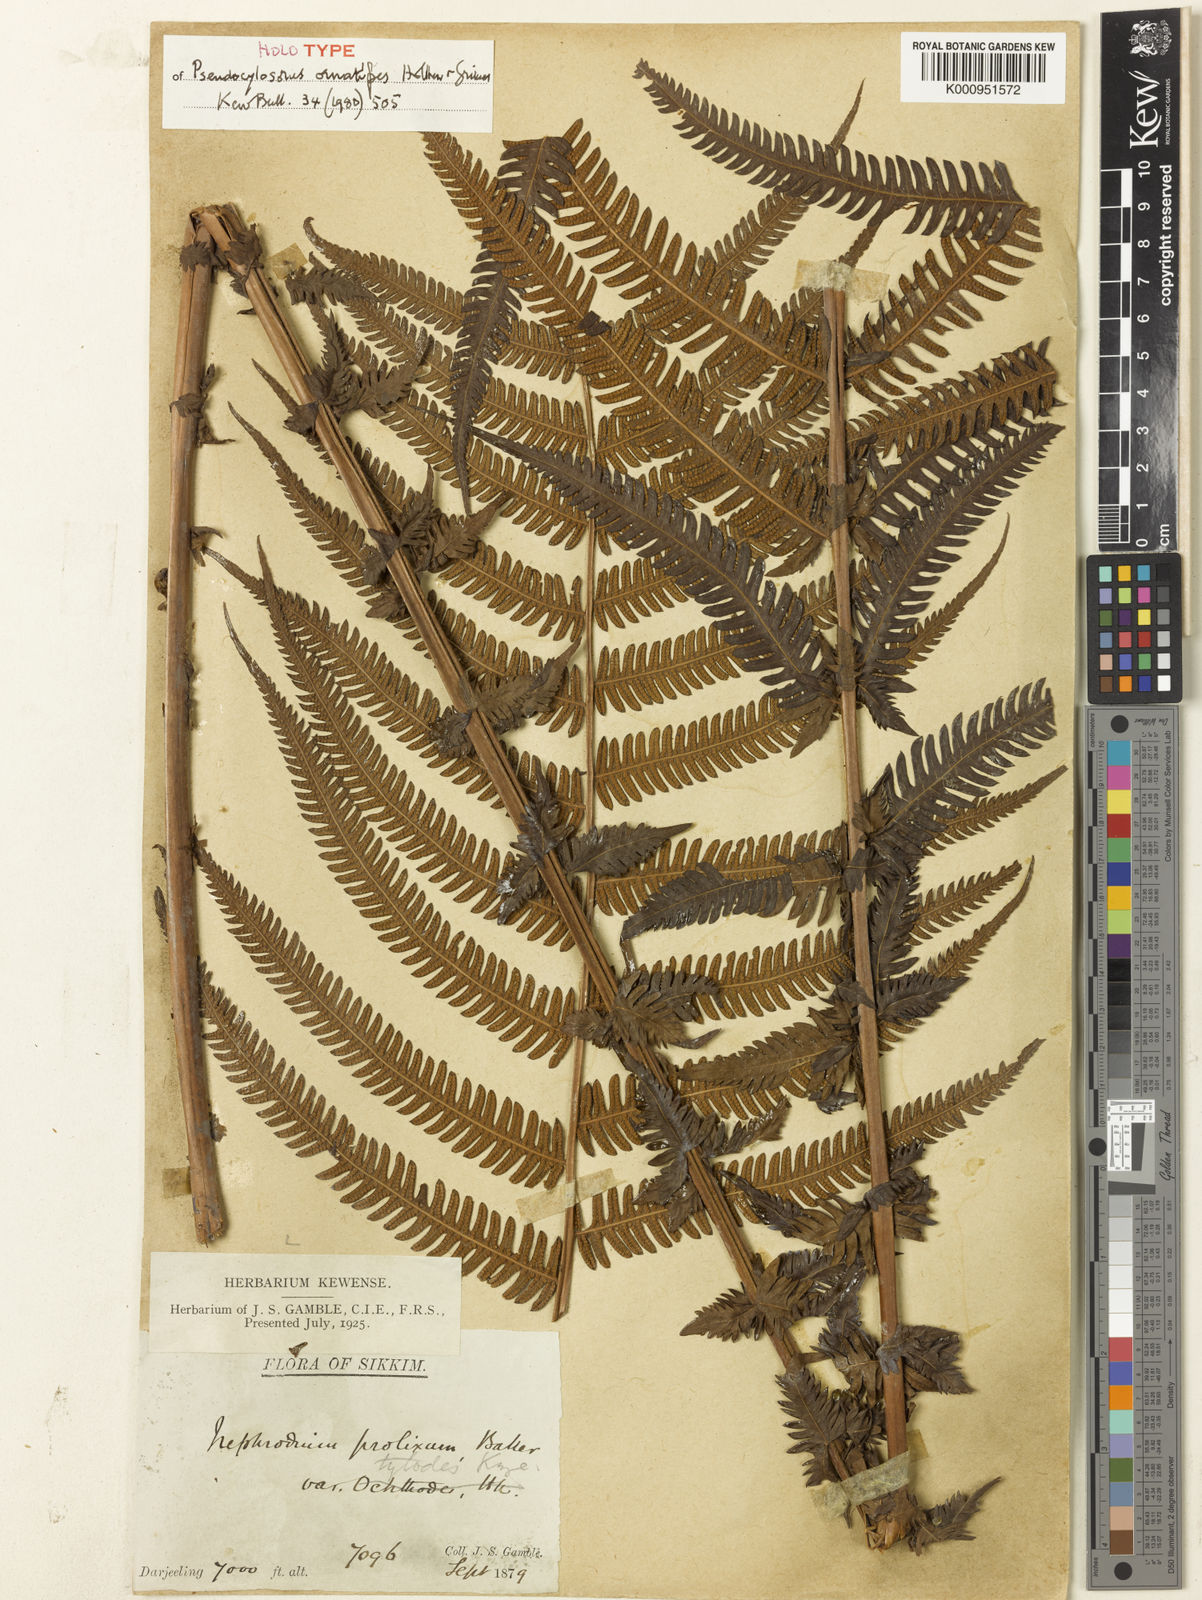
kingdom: Plantae
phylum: Tracheophyta
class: Polypodiopsida
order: Polypodiales
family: Thelypteridaceae
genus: Pseudocyclosorus
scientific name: Pseudocyclosorus ornatipes
